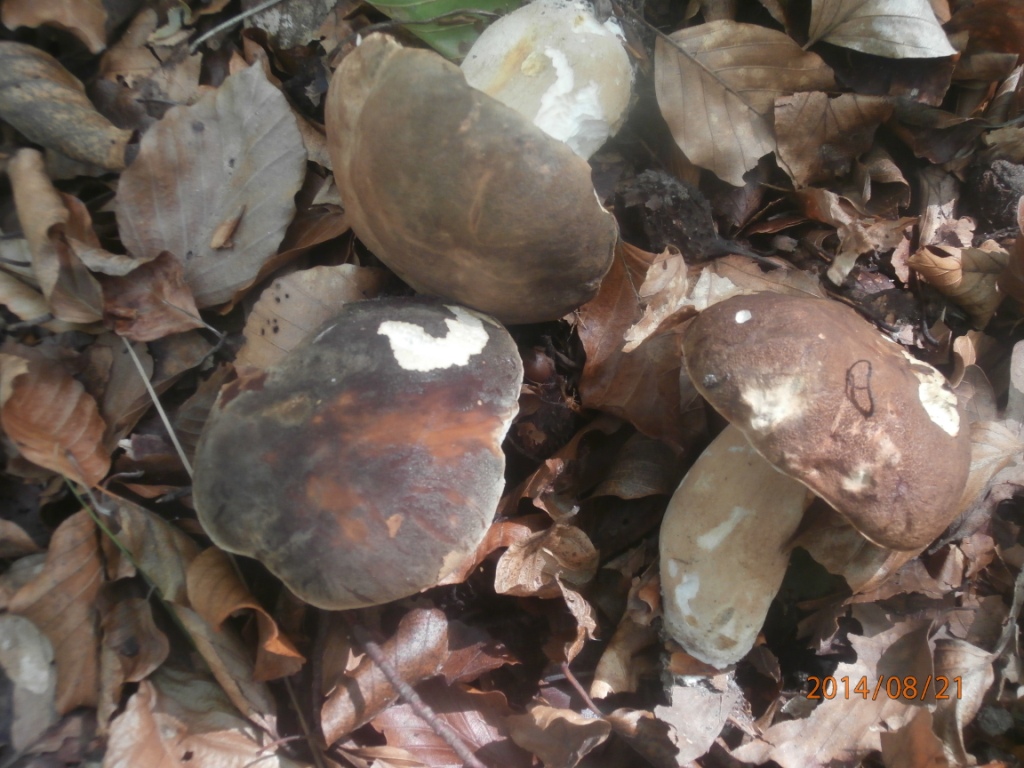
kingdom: Fungi
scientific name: Fungi
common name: bronze-rørhat
